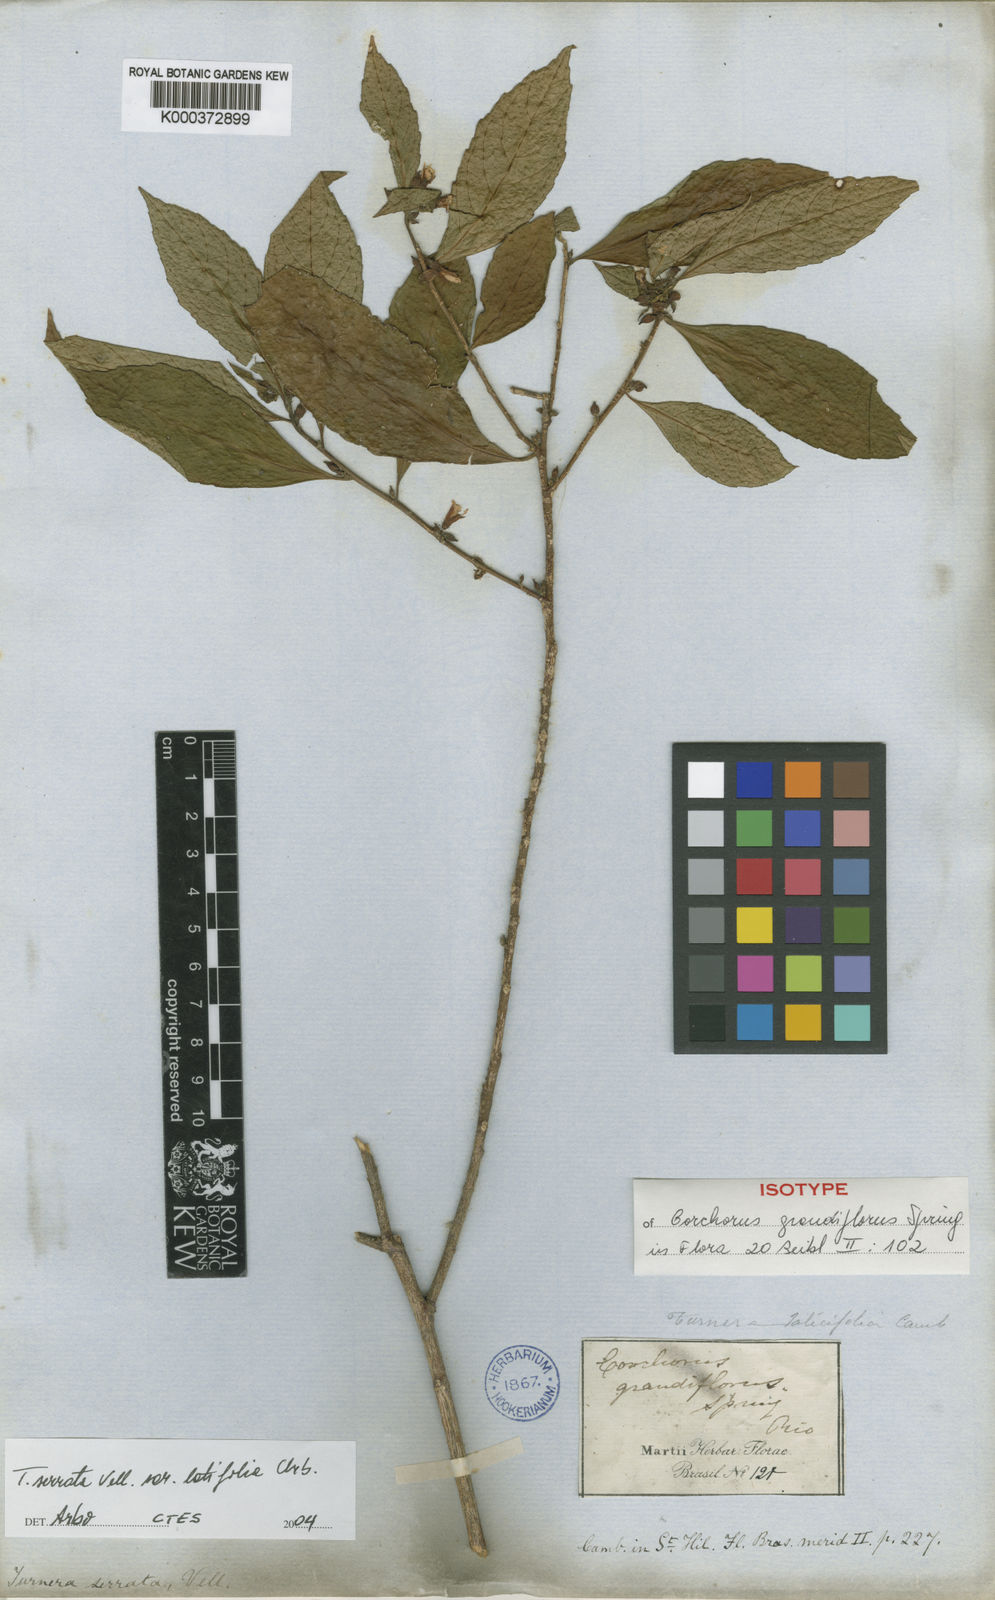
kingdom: Plantae
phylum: Tracheophyta
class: Magnoliopsida
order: Malpighiales
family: Turneraceae
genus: Turnera
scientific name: Turnera serrata
